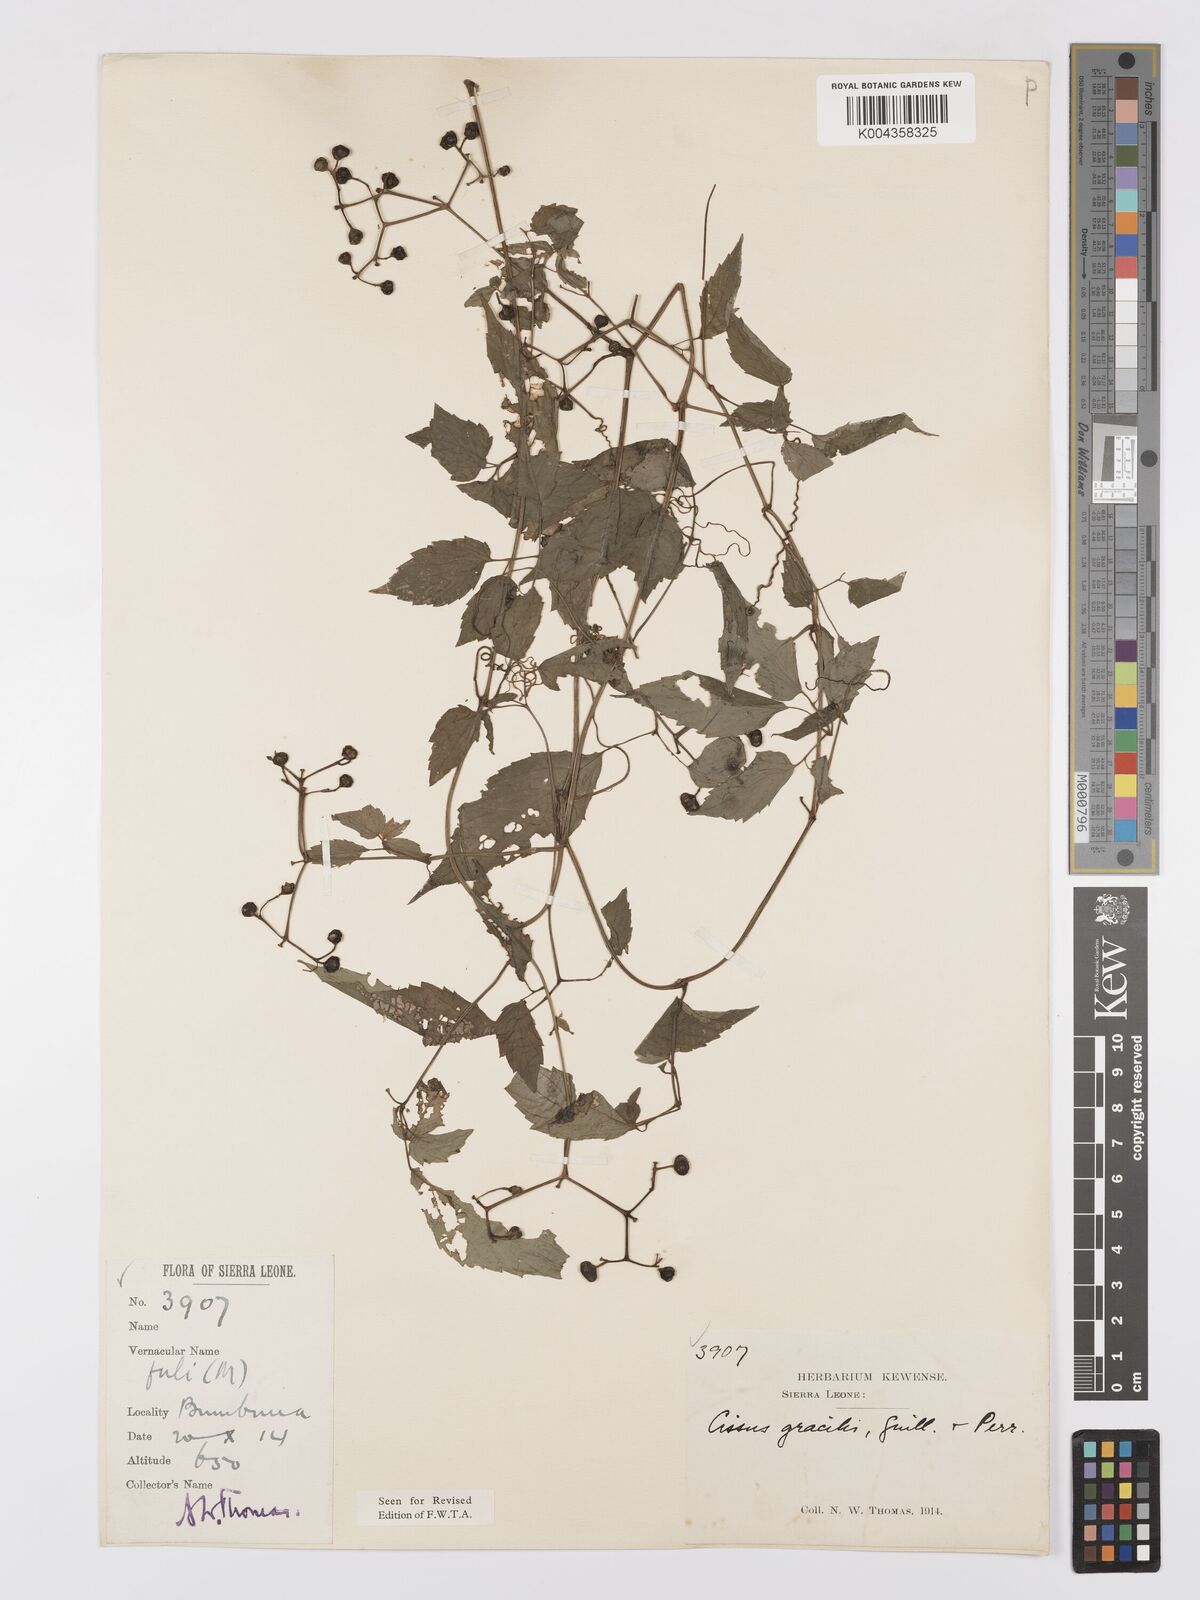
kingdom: Plantae
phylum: Tracheophyta
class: Magnoliopsida
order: Vitales
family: Vitaceae
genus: Afrocayratia
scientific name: Afrocayratia gracilis
